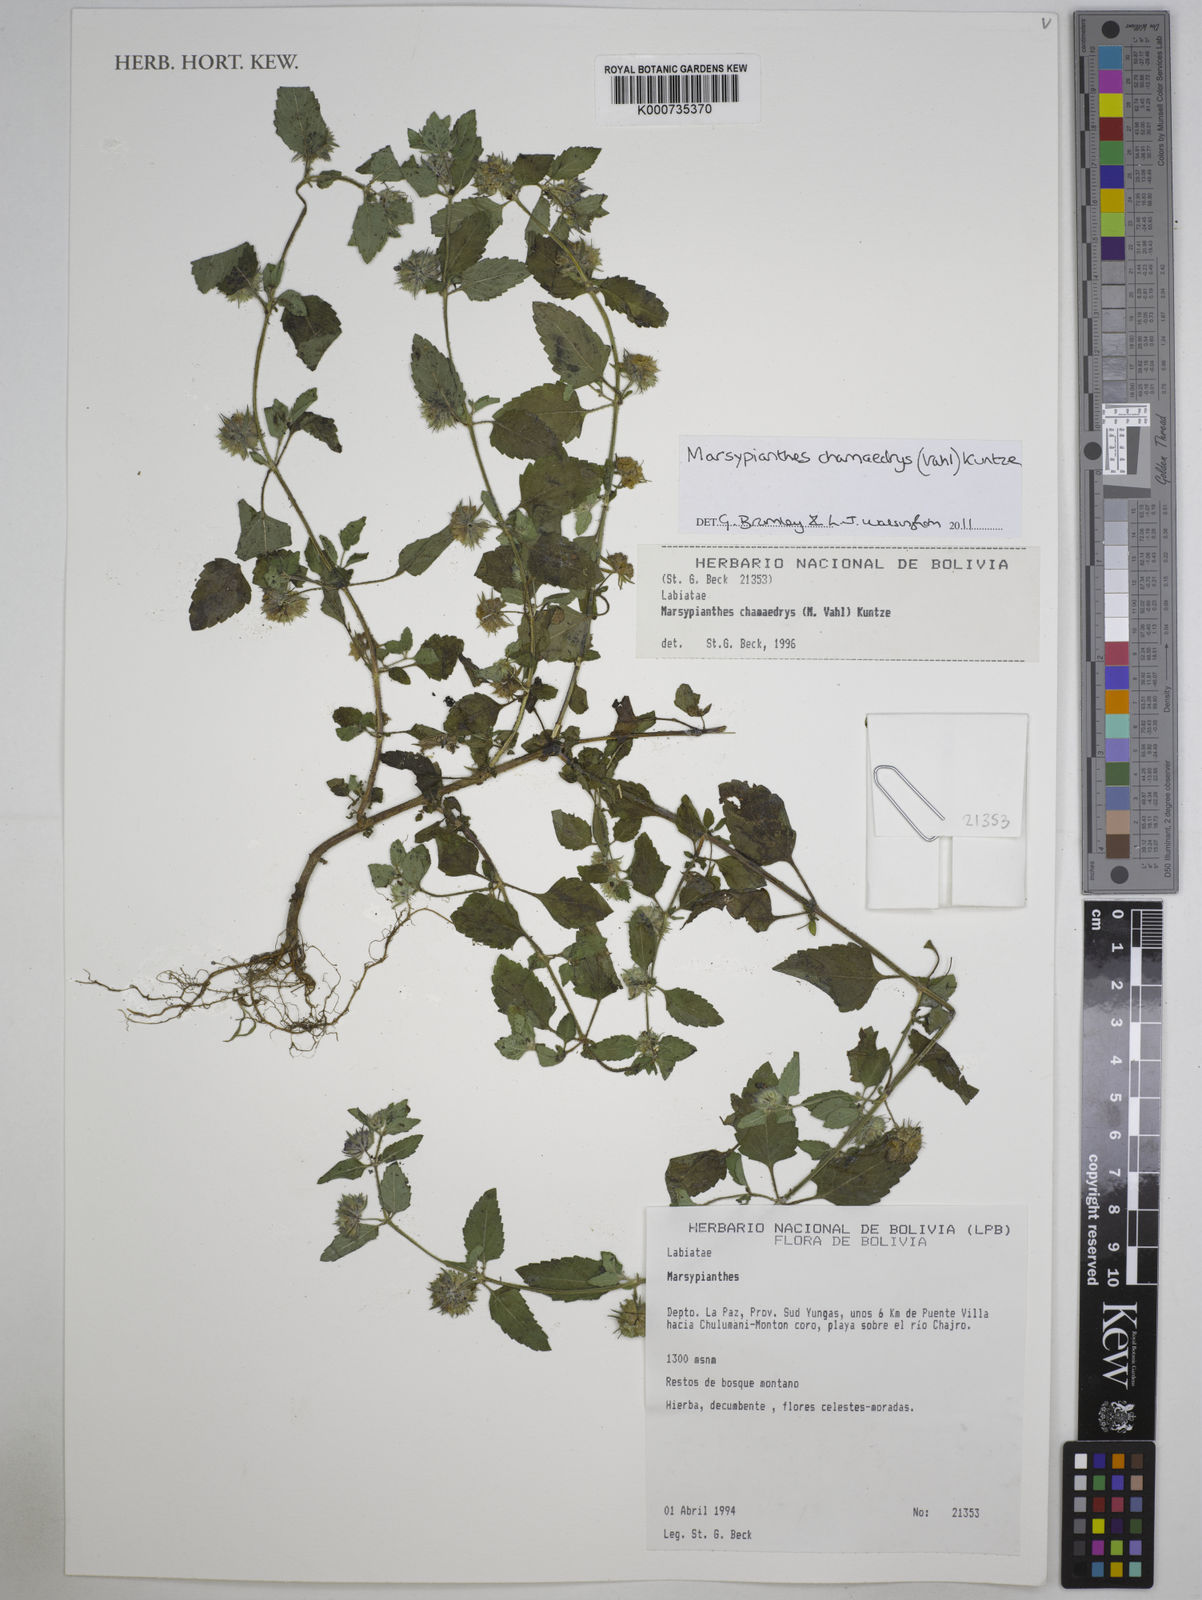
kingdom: Plantae
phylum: Tracheophyta
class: Magnoliopsida
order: Lamiales
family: Lamiaceae
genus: Marsypianthes
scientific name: Marsypianthes chamaedrys
